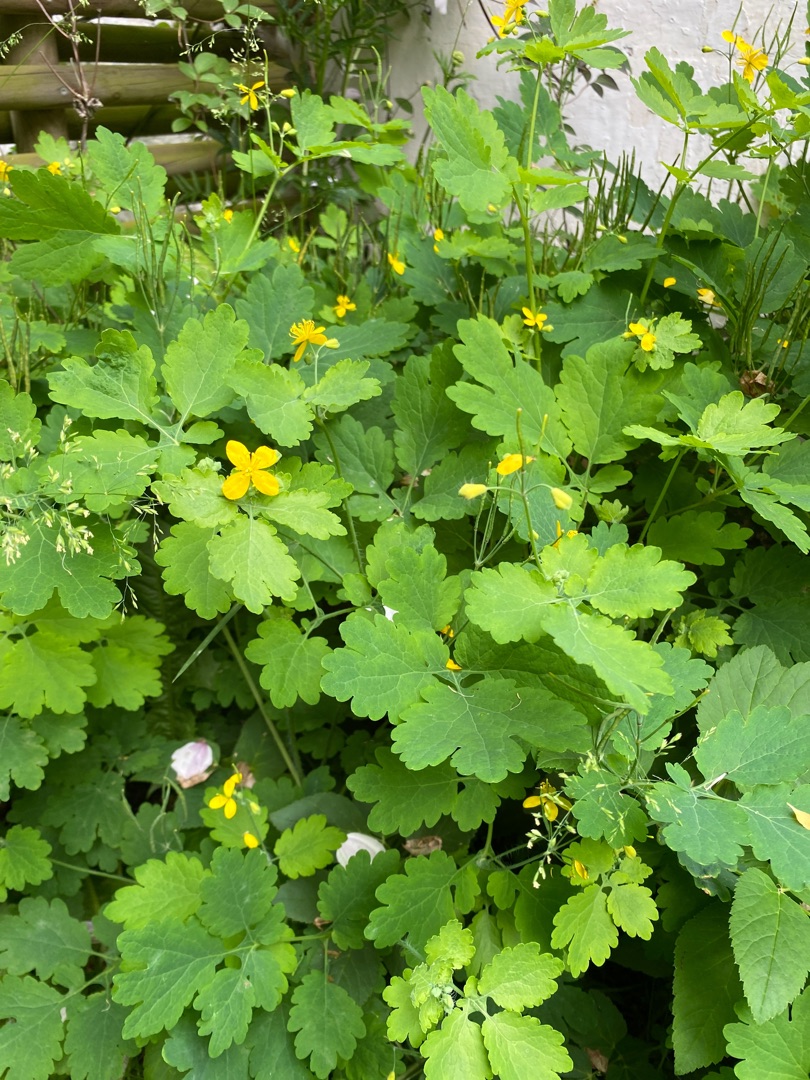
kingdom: Plantae
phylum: Tracheophyta
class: Magnoliopsida
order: Ranunculales
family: Papaveraceae
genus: Chelidonium
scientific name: Chelidonium majus
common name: Svaleurt
